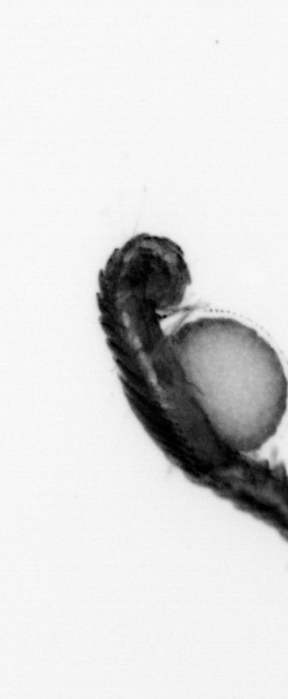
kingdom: Animalia
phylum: Annelida
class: Polychaeta
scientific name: Polychaeta
